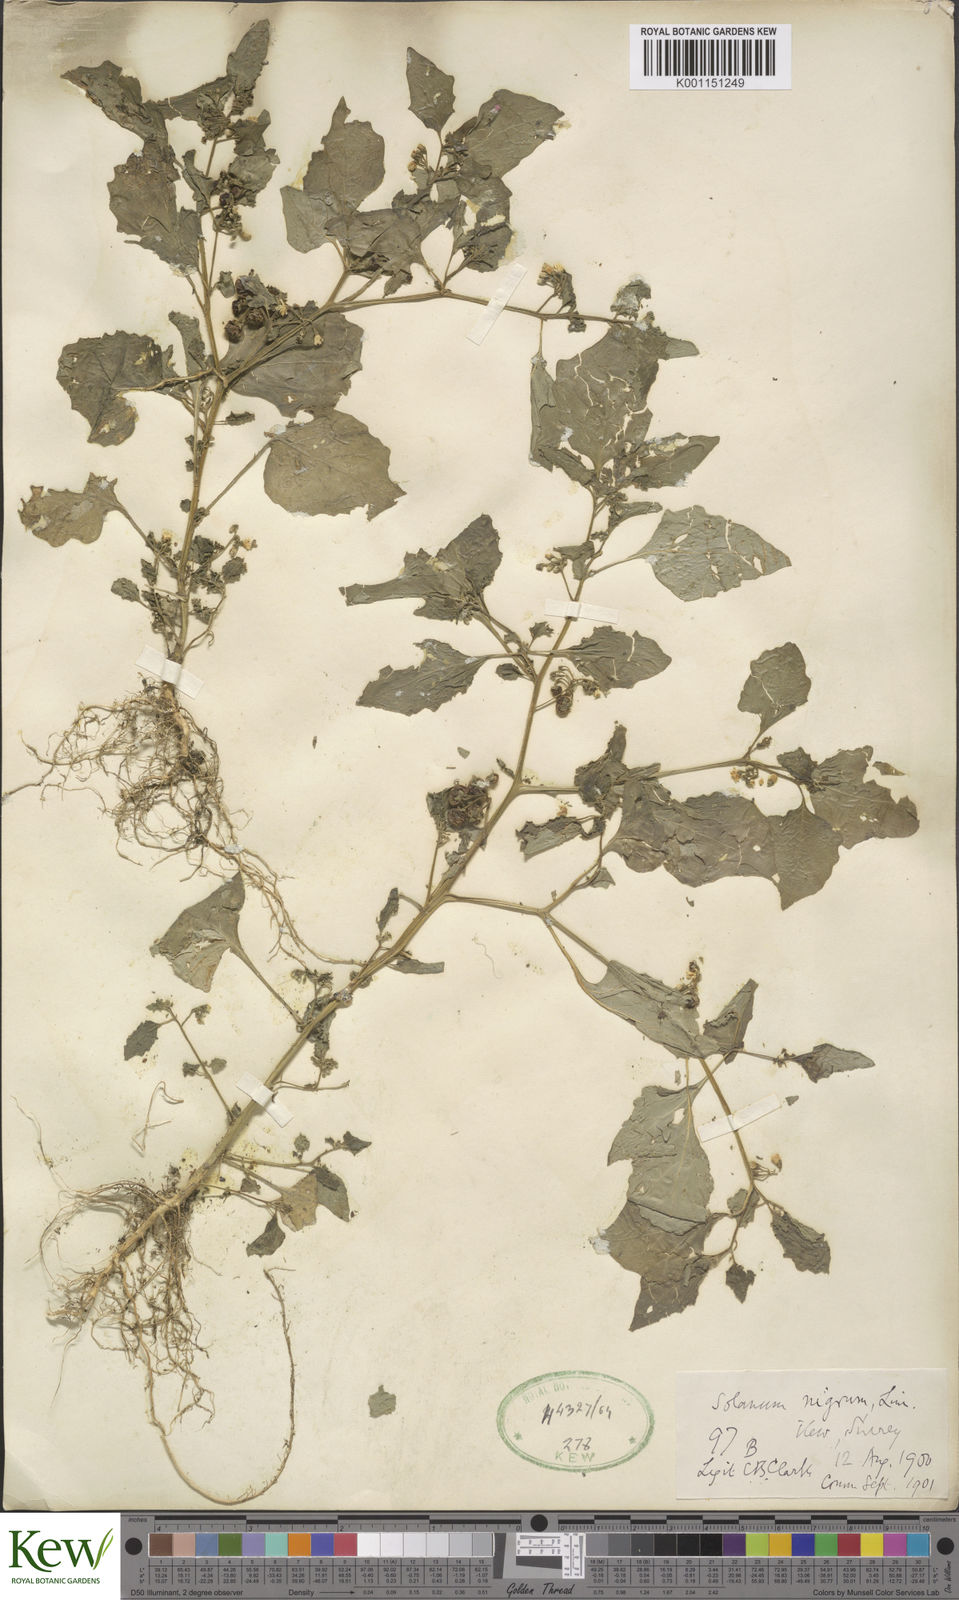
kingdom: Plantae
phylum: Tracheophyta
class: Magnoliopsida
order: Solanales
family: Solanaceae
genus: Solanum
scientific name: Solanum nigrum
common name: Black nightshade
